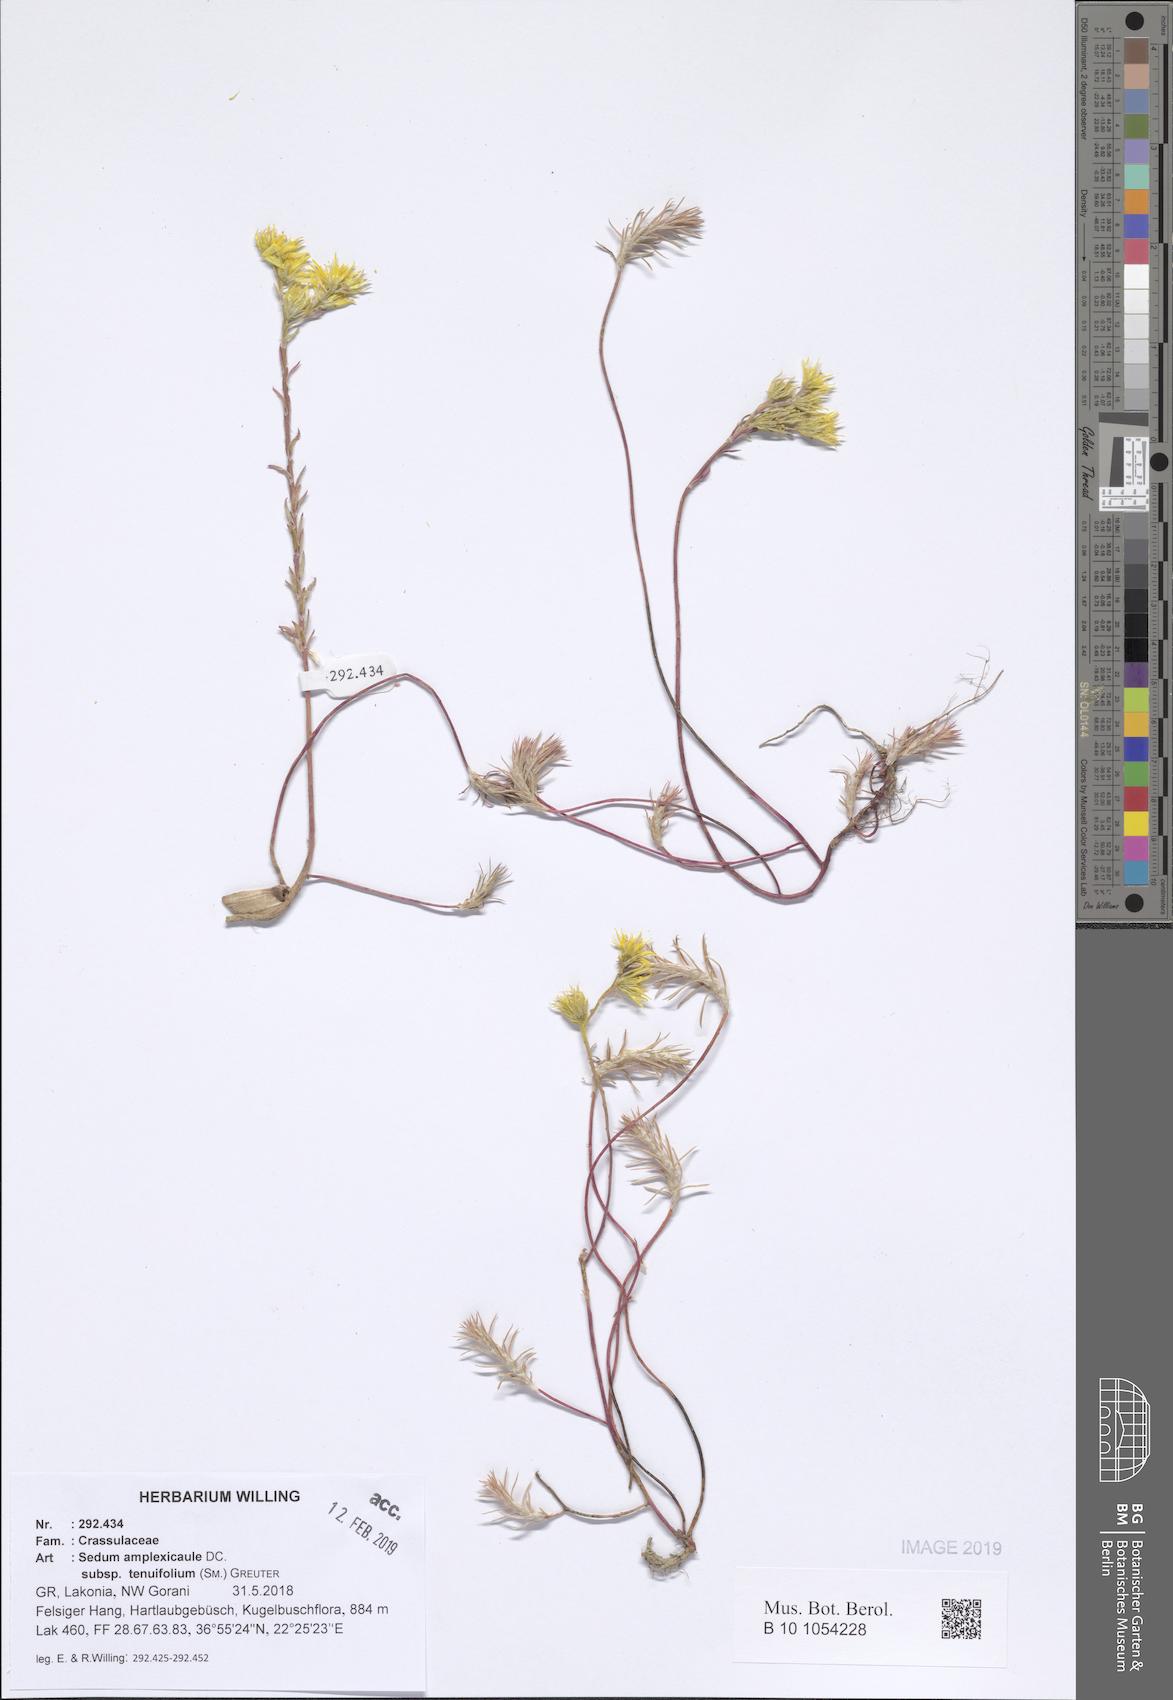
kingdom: Plantae
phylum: Tracheophyta
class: Magnoliopsida
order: Saxifragales
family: Crassulaceae
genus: Petrosedum
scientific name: Petrosedum tenuifolium
